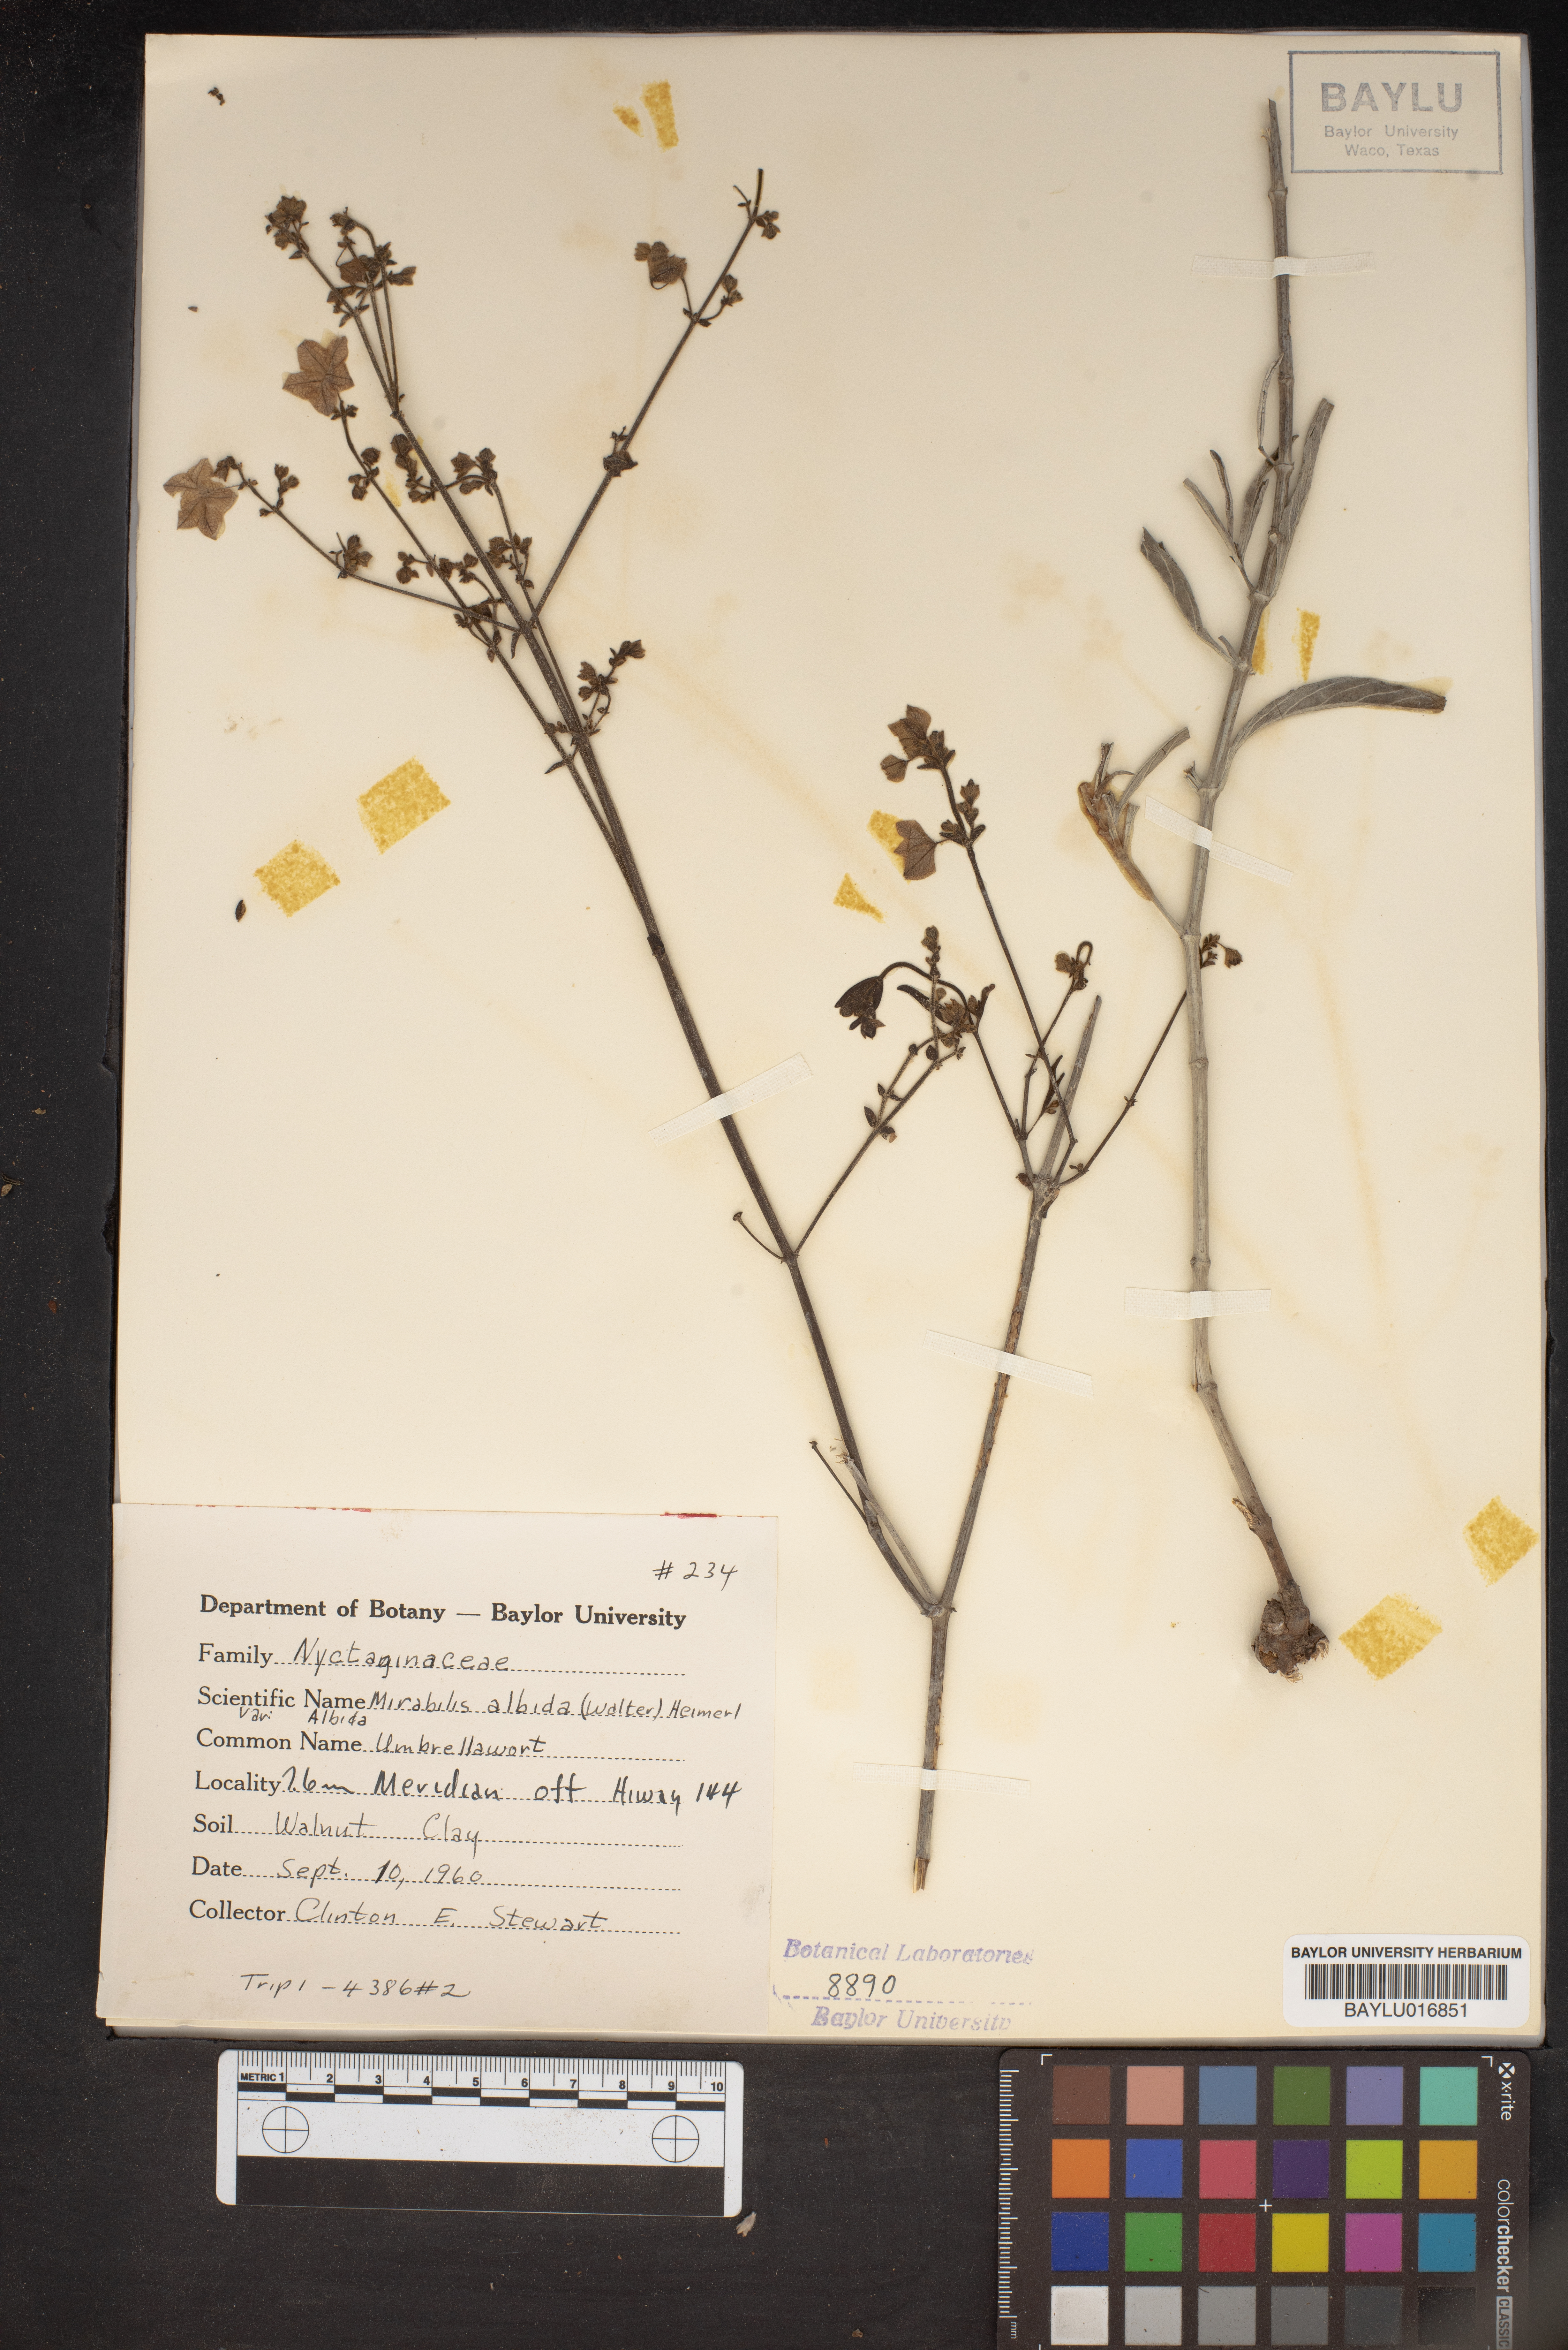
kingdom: Plantae
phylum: Tracheophyta
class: Magnoliopsida
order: Caryophyllales
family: Nyctaginaceae
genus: Mirabilis
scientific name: Mirabilis albida
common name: Hairy four-o'clock
